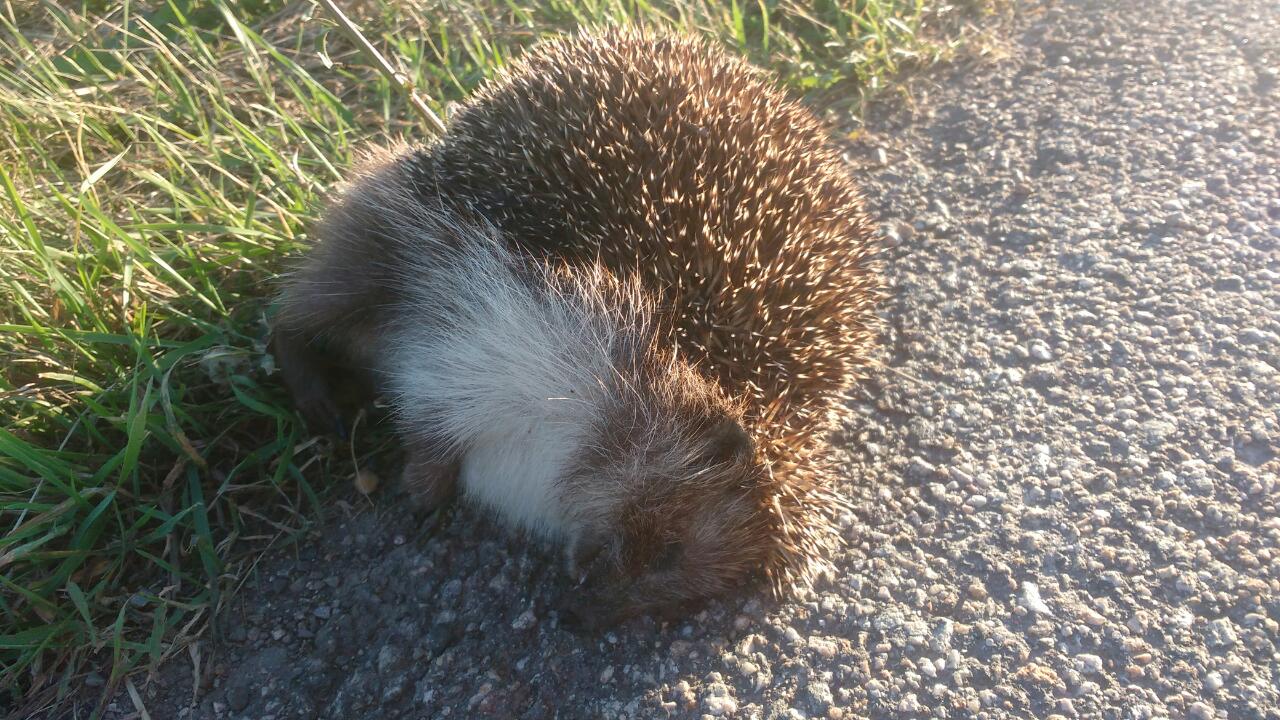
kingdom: Animalia
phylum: Chordata
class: Mammalia
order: Erinaceomorpha
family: Erinaceidae
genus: Erinaceus
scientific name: Erinaceus
